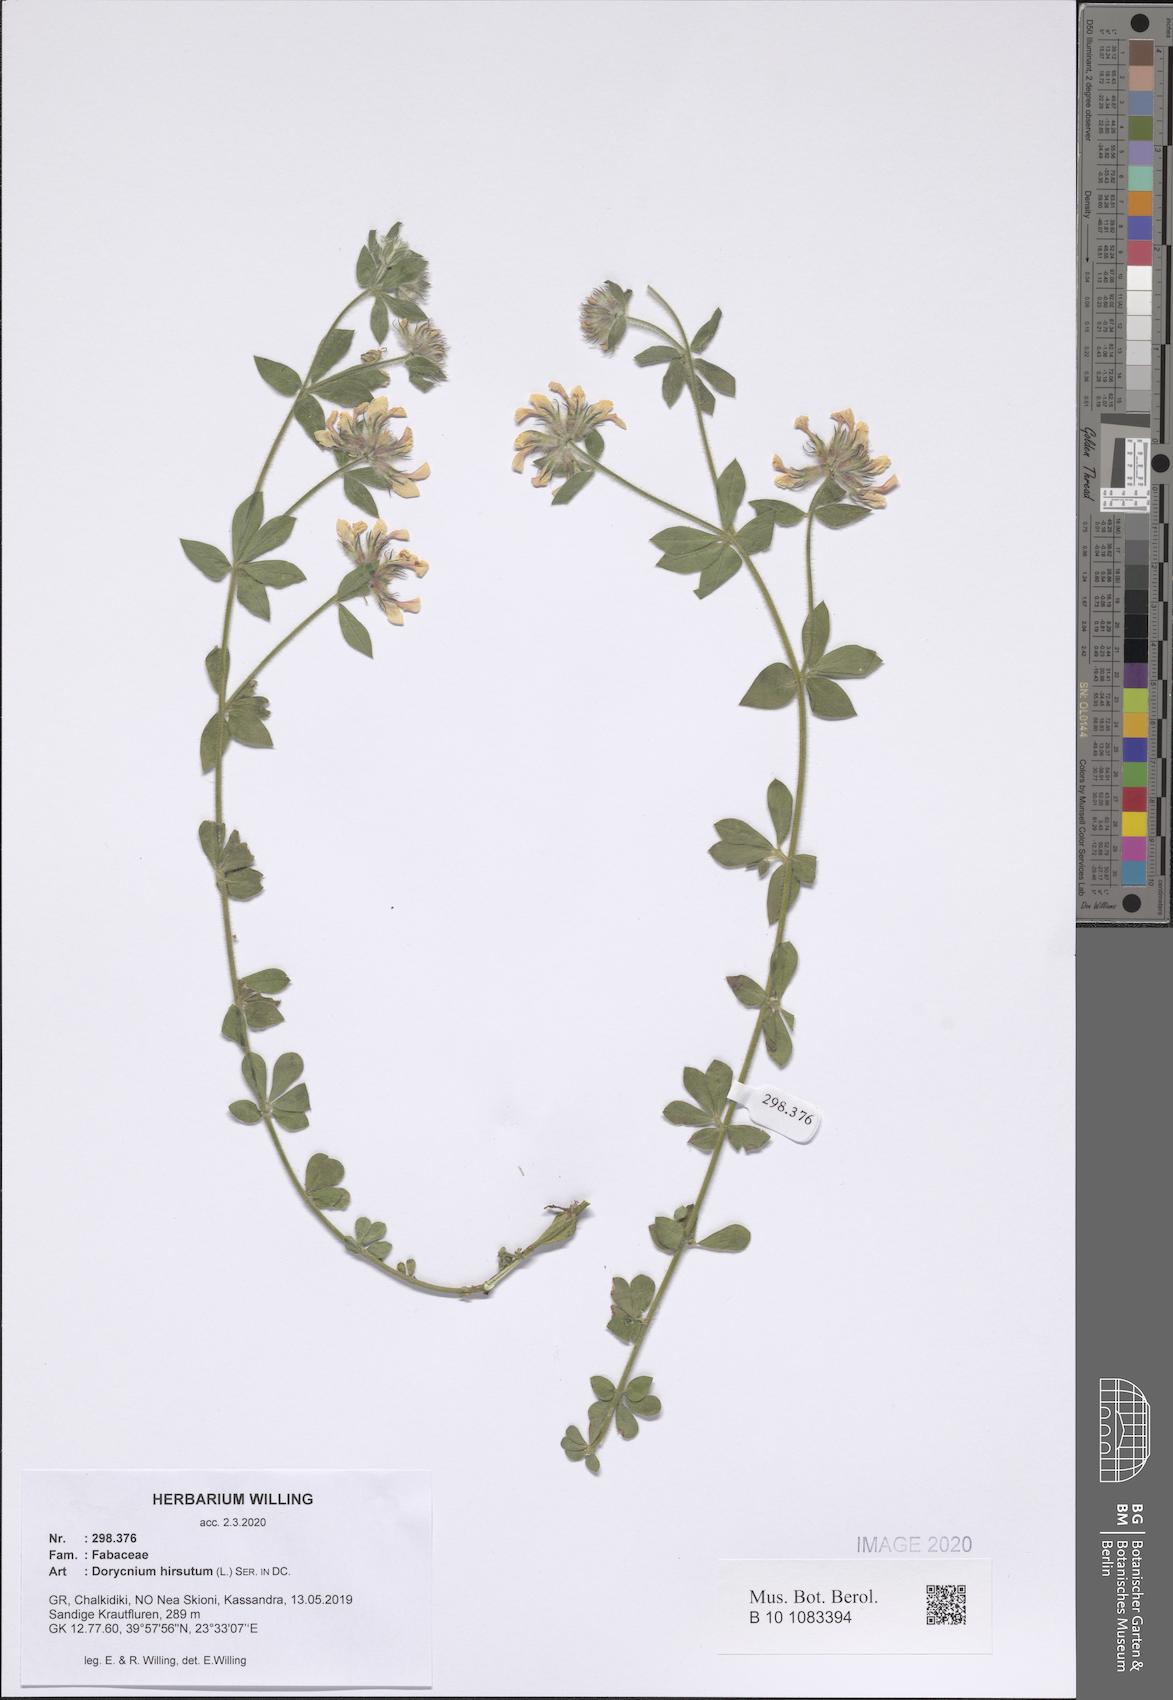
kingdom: Plantae
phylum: Tracheophyta
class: Magnoliopsida
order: Fabales
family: Fabaceae
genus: Lotus
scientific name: Lotus hirsutus
